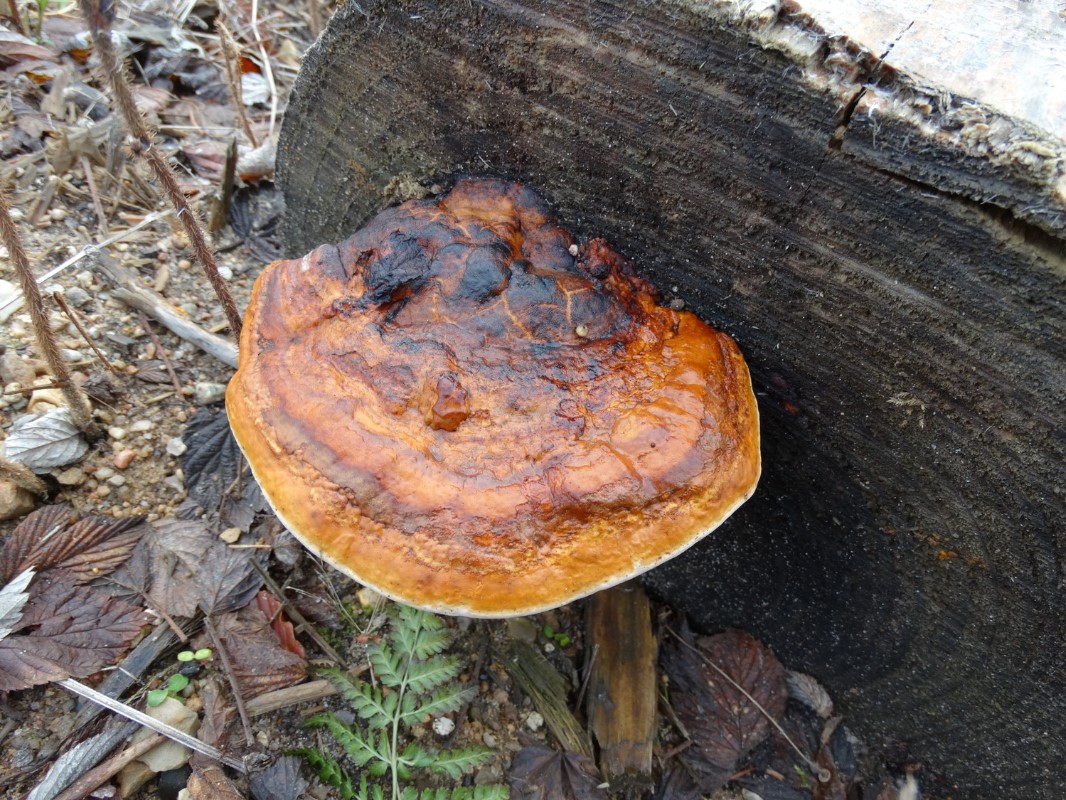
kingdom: Fungi
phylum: Basidiomycota
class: Agaricomycetes
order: Polyporales
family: Fomitopsidaceae
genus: Fomitopsis
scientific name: Fomitopsis pinicola
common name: randbæltet hovporesvamp
